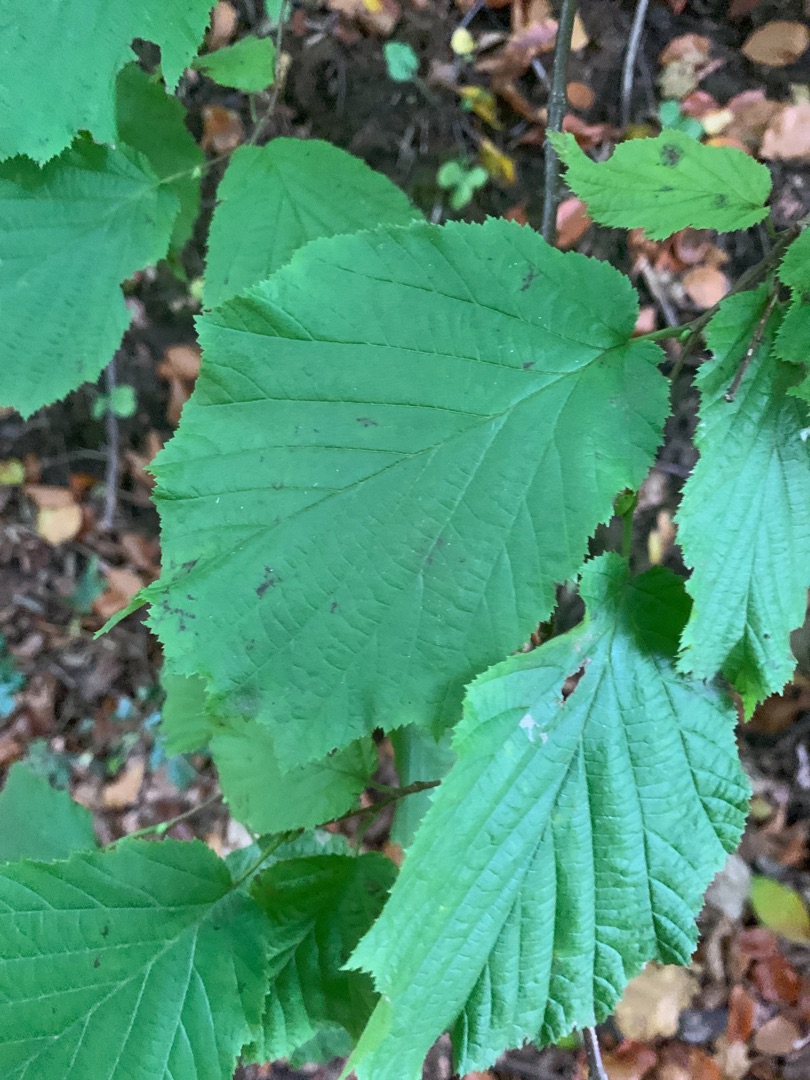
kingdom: Plantae
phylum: Tracheophyta
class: Magnoliopsida
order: Fagales
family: Betulaceae
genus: Corylus
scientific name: Corylus avellana
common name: Hassel
